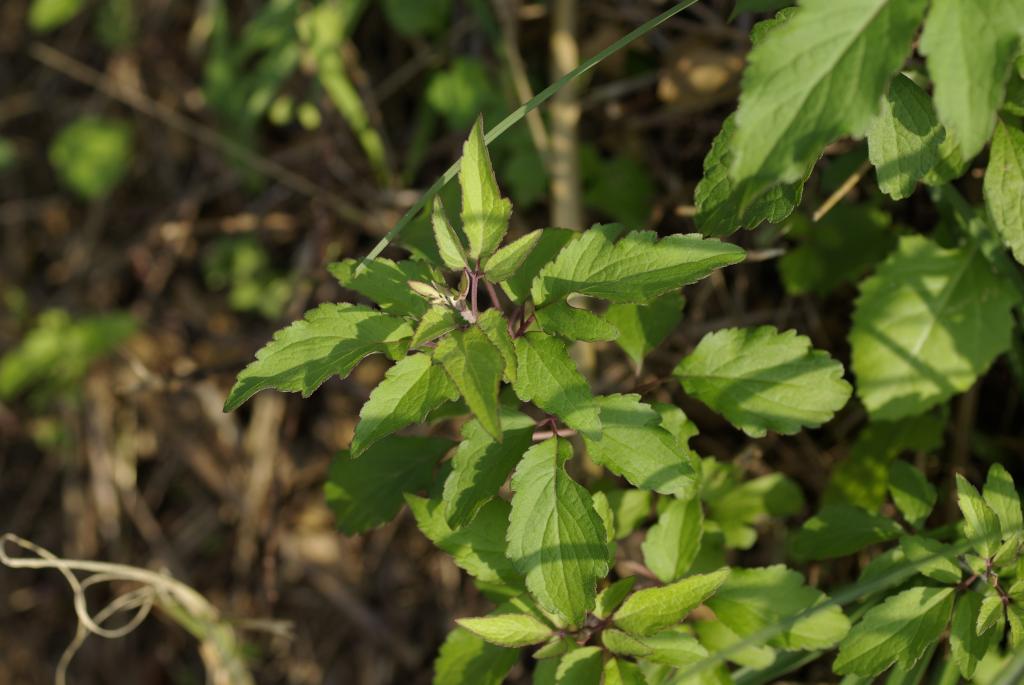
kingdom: Plantae
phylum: Tracheophyta
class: Magnoliopsida
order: Asterales
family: Asteraceae
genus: Eupatorium
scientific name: Eupatorium formosanum
